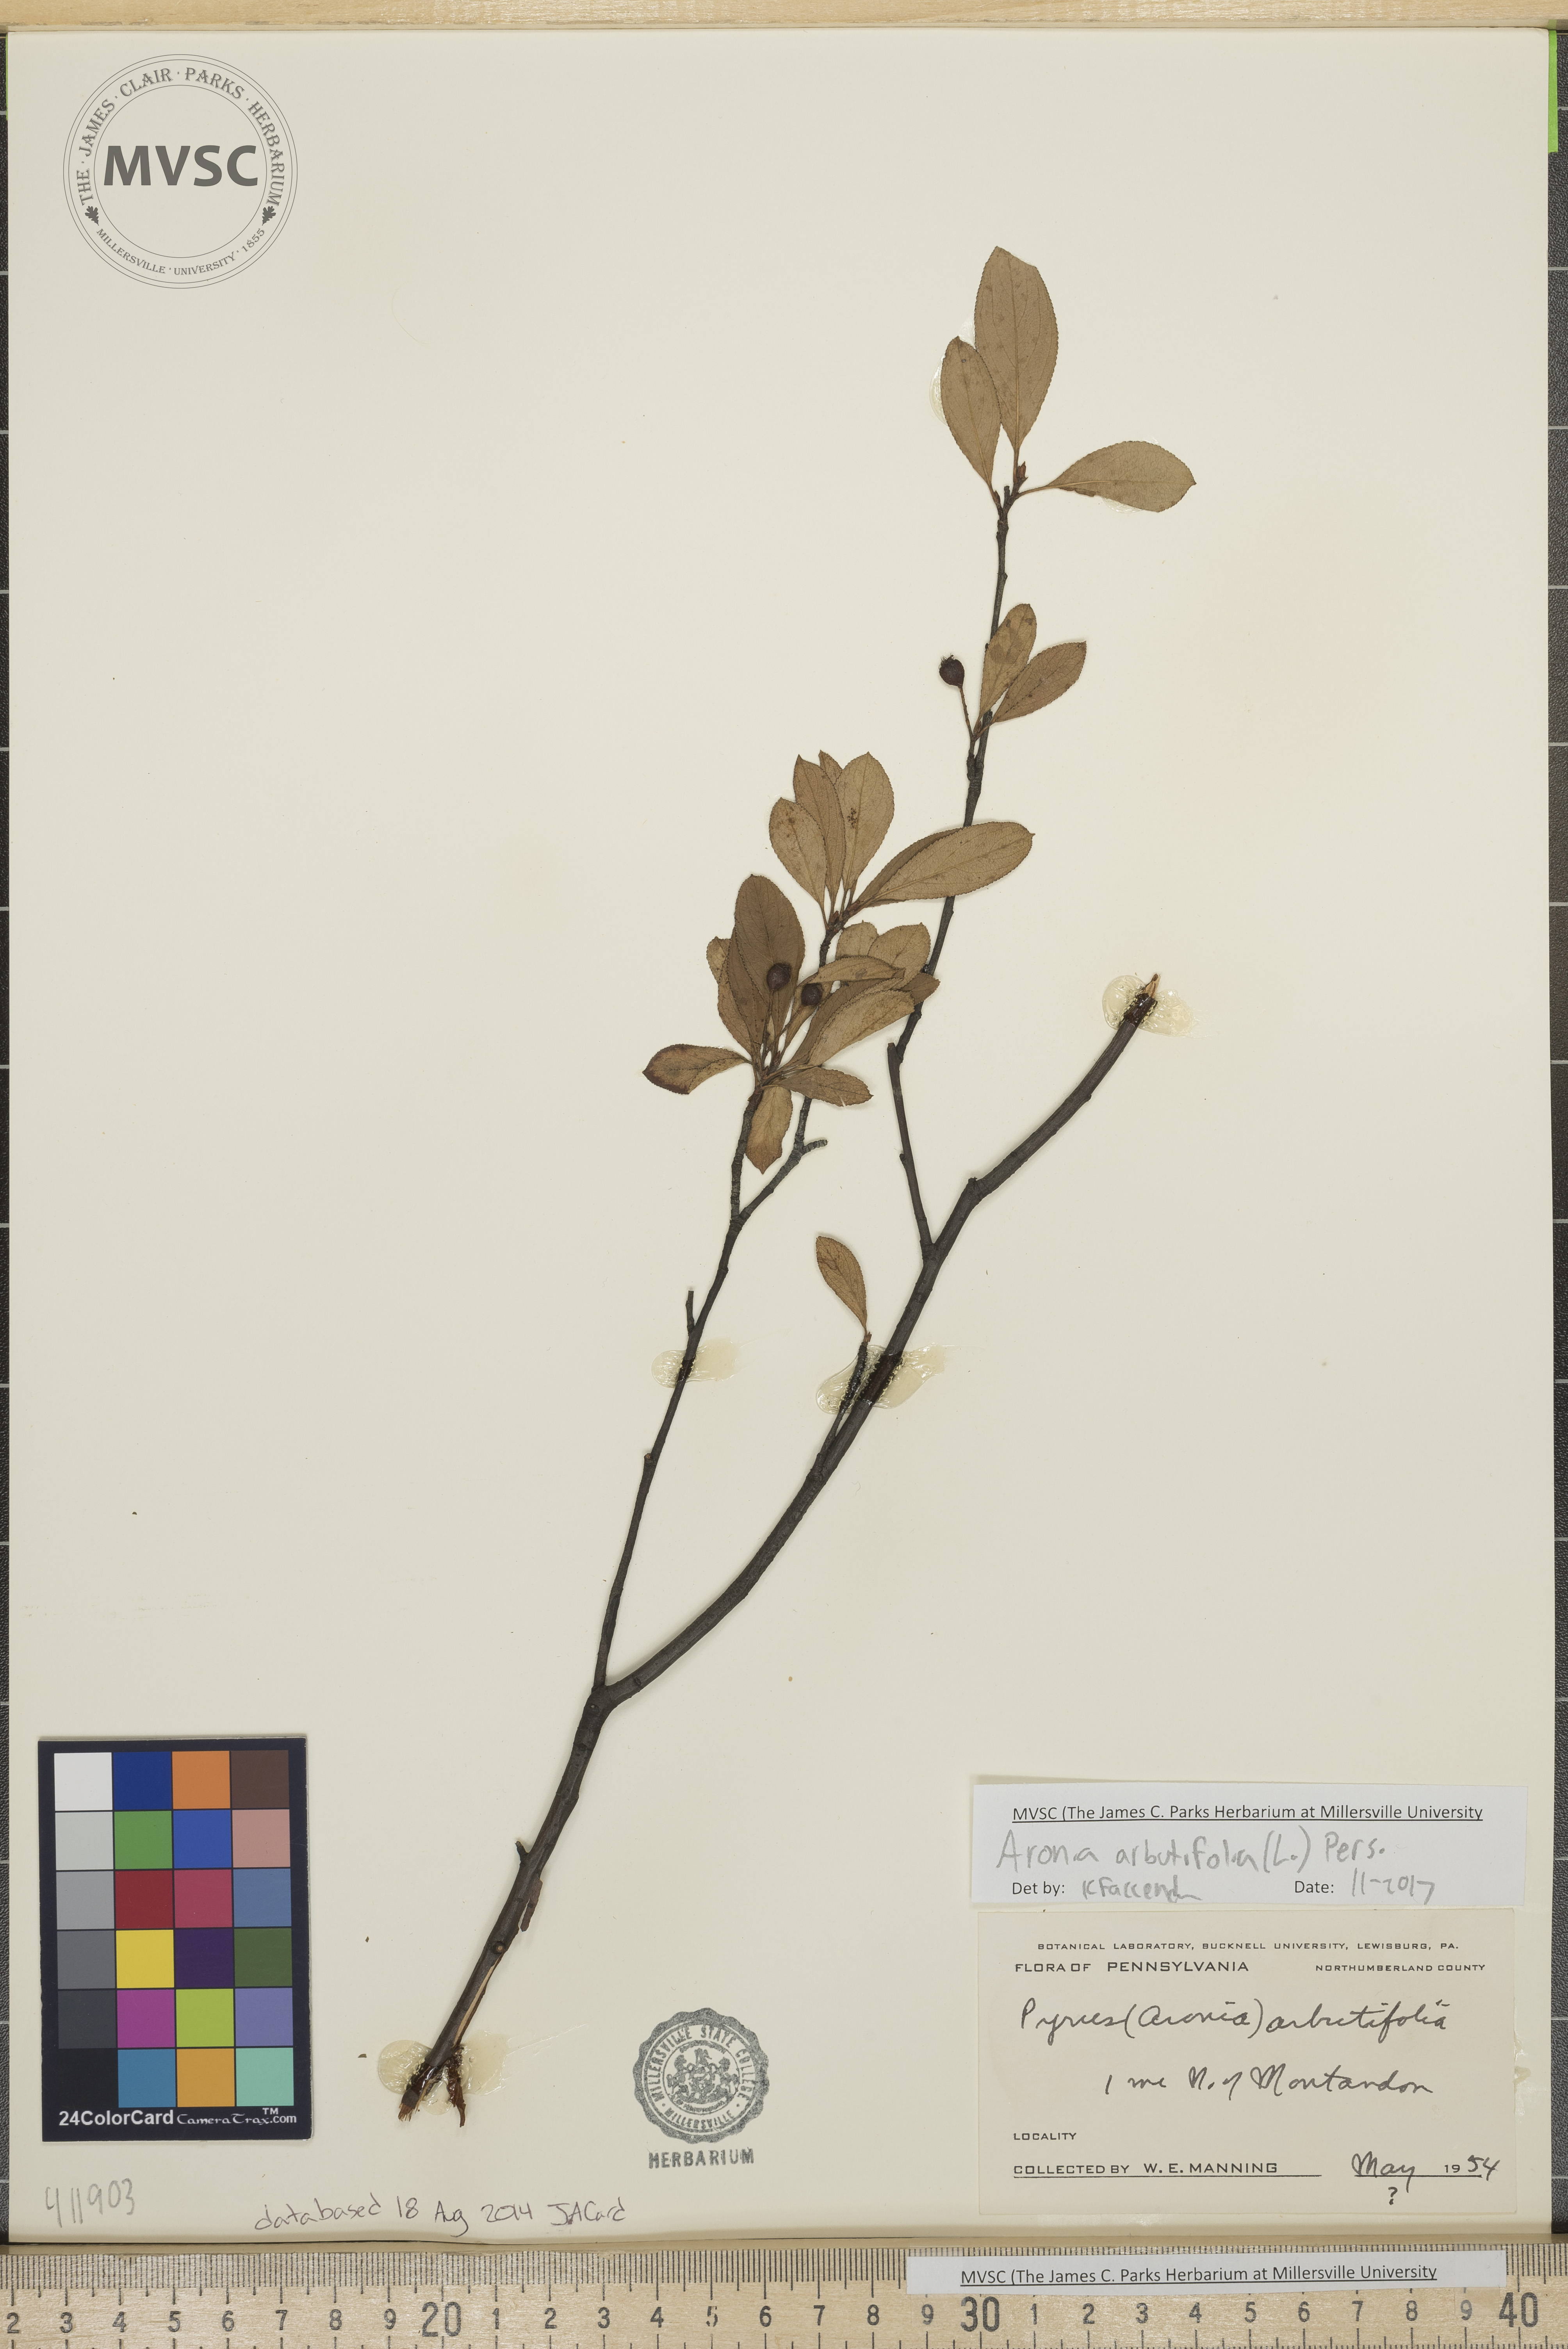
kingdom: Plantae
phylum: Tracheophyta
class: Magnoliopsida
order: Rosales
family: Rosaceae
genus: Aronia
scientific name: Aronia arbutifolia
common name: Red chokeberry
